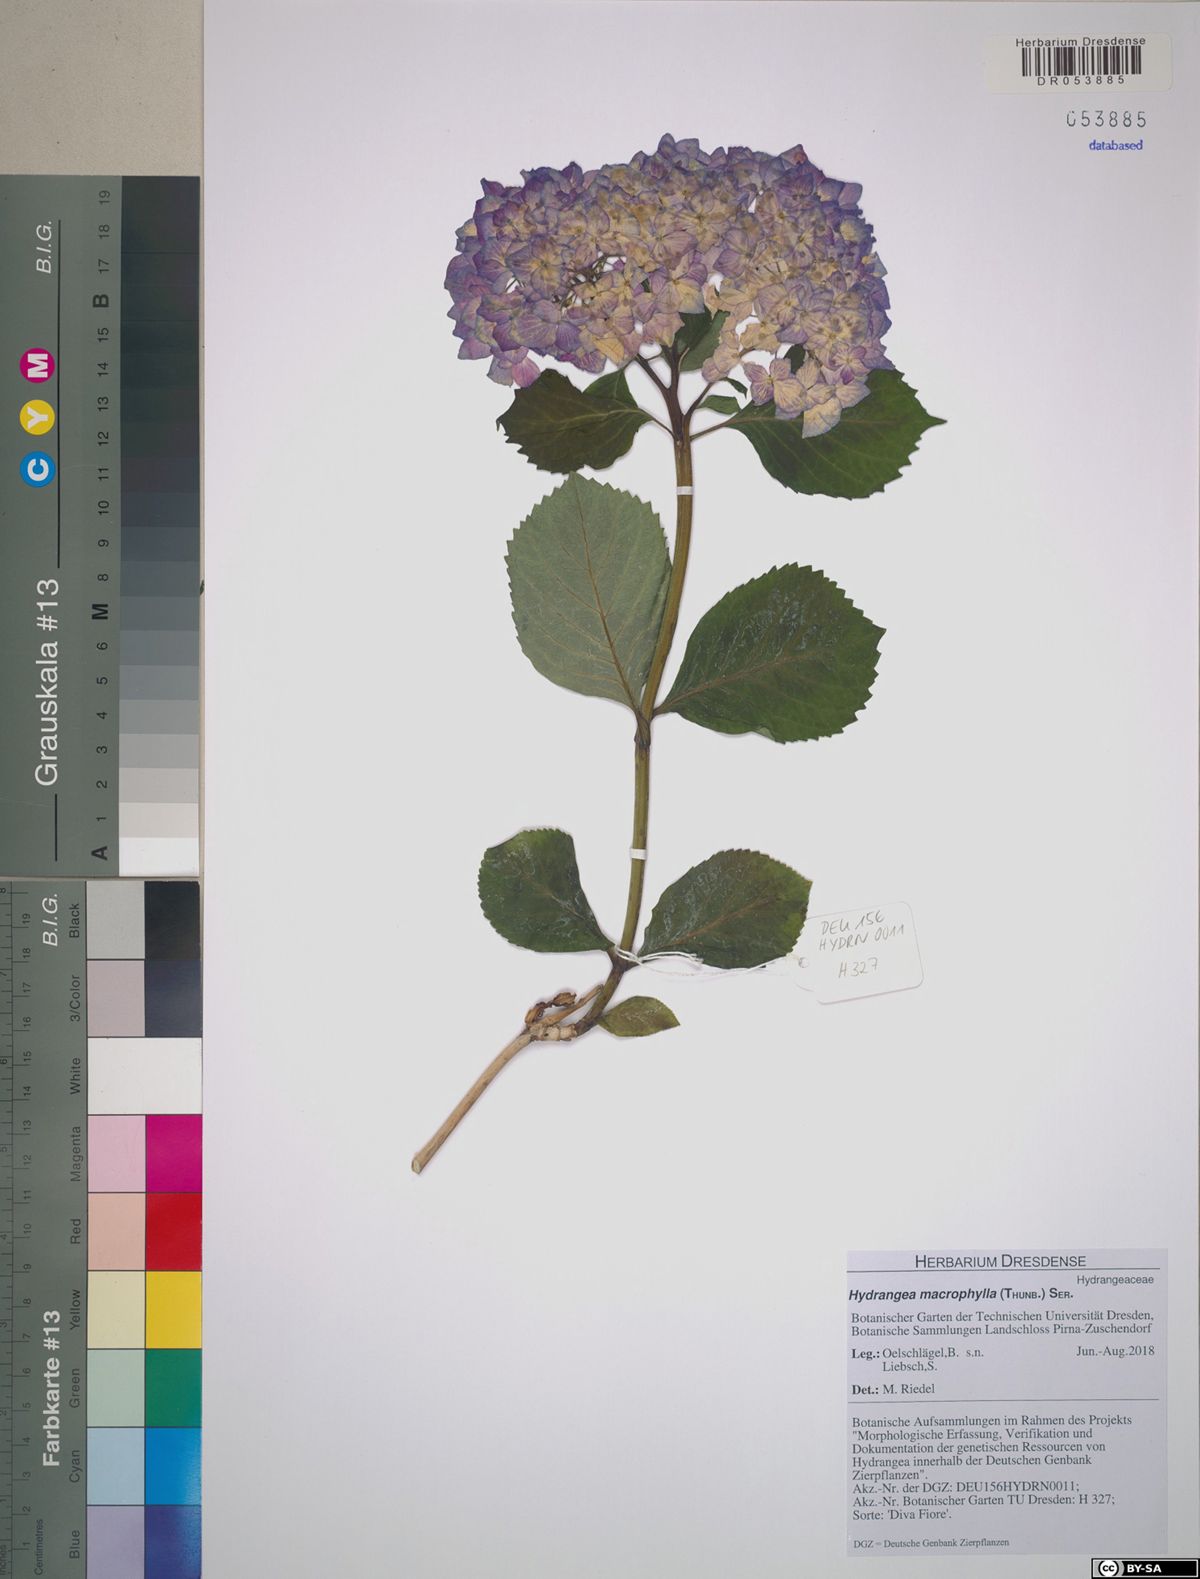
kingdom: Plantae
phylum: Tracheophyta
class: Magnoliopsida
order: Cornales
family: Hydrangeaceae
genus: Hydrangea
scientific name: Hydrangea macrophylla
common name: Hydrangea
